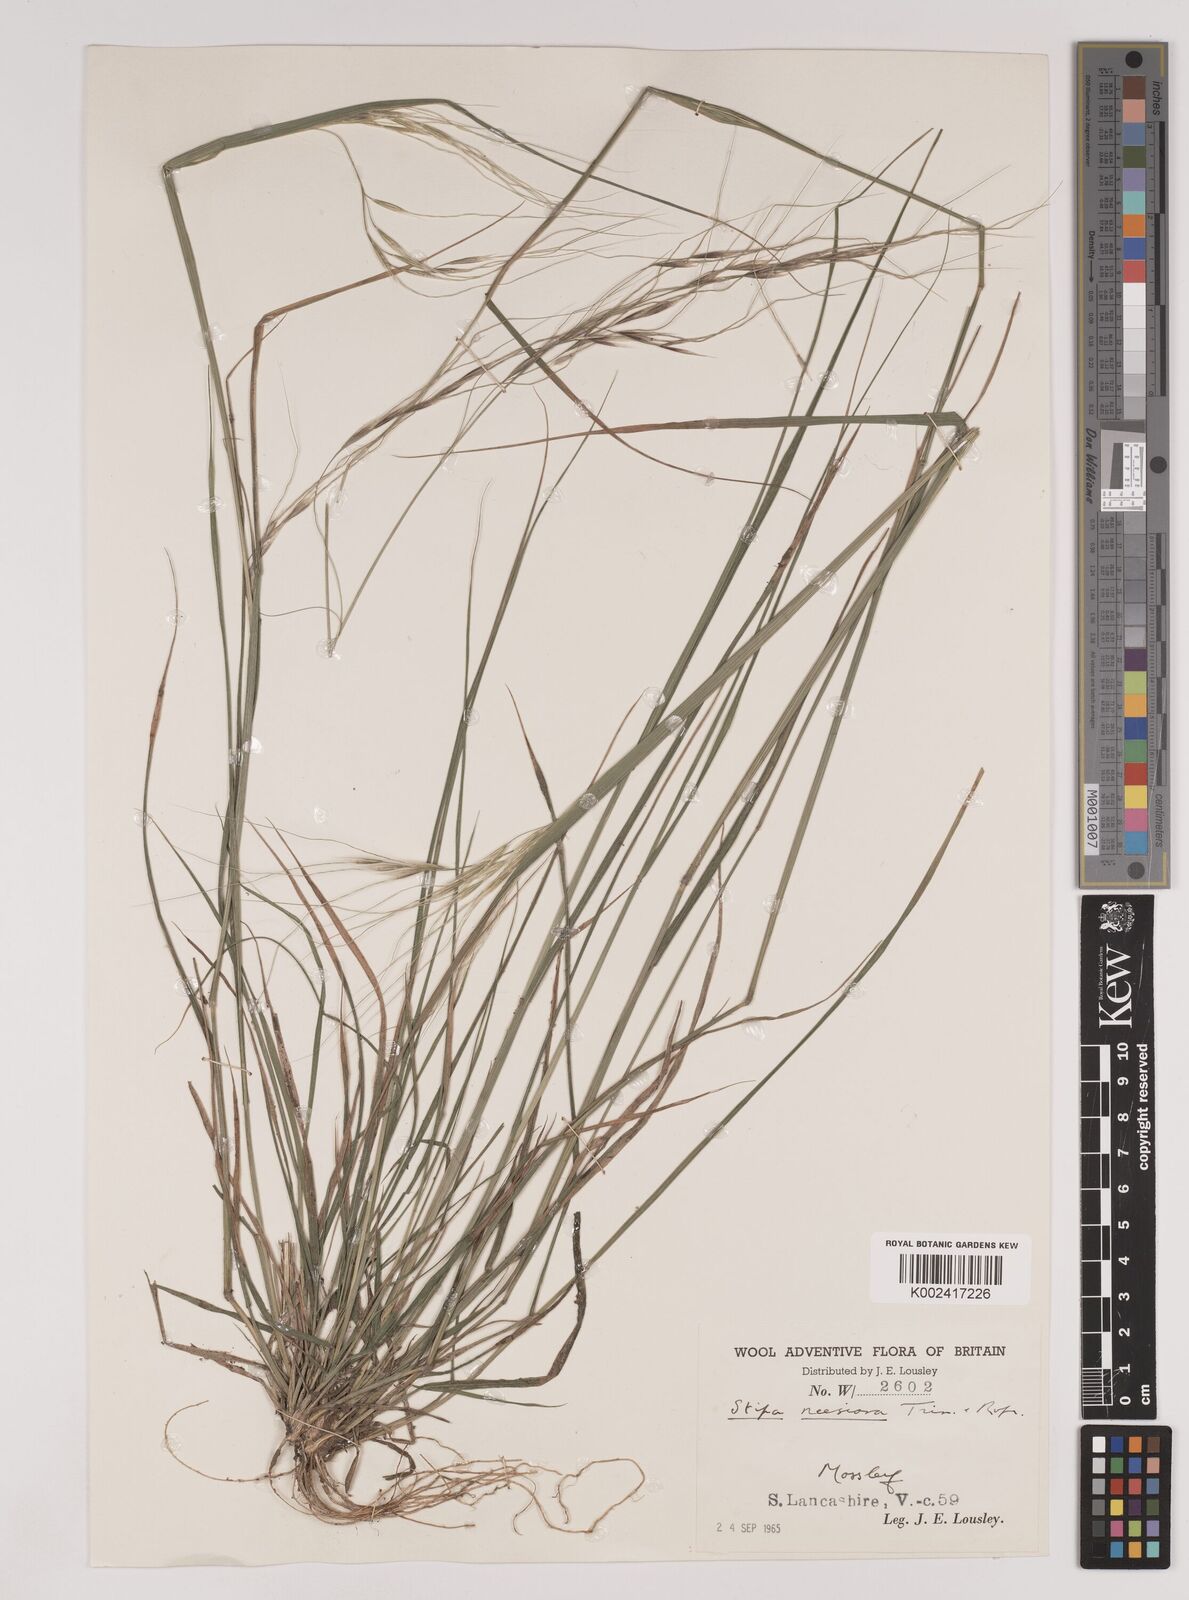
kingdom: Plantae
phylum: Tracheophyta
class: Liliopsida
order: Poales
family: Poaceae
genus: Nassella
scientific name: Nassella neesiana
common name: American needle-grass
